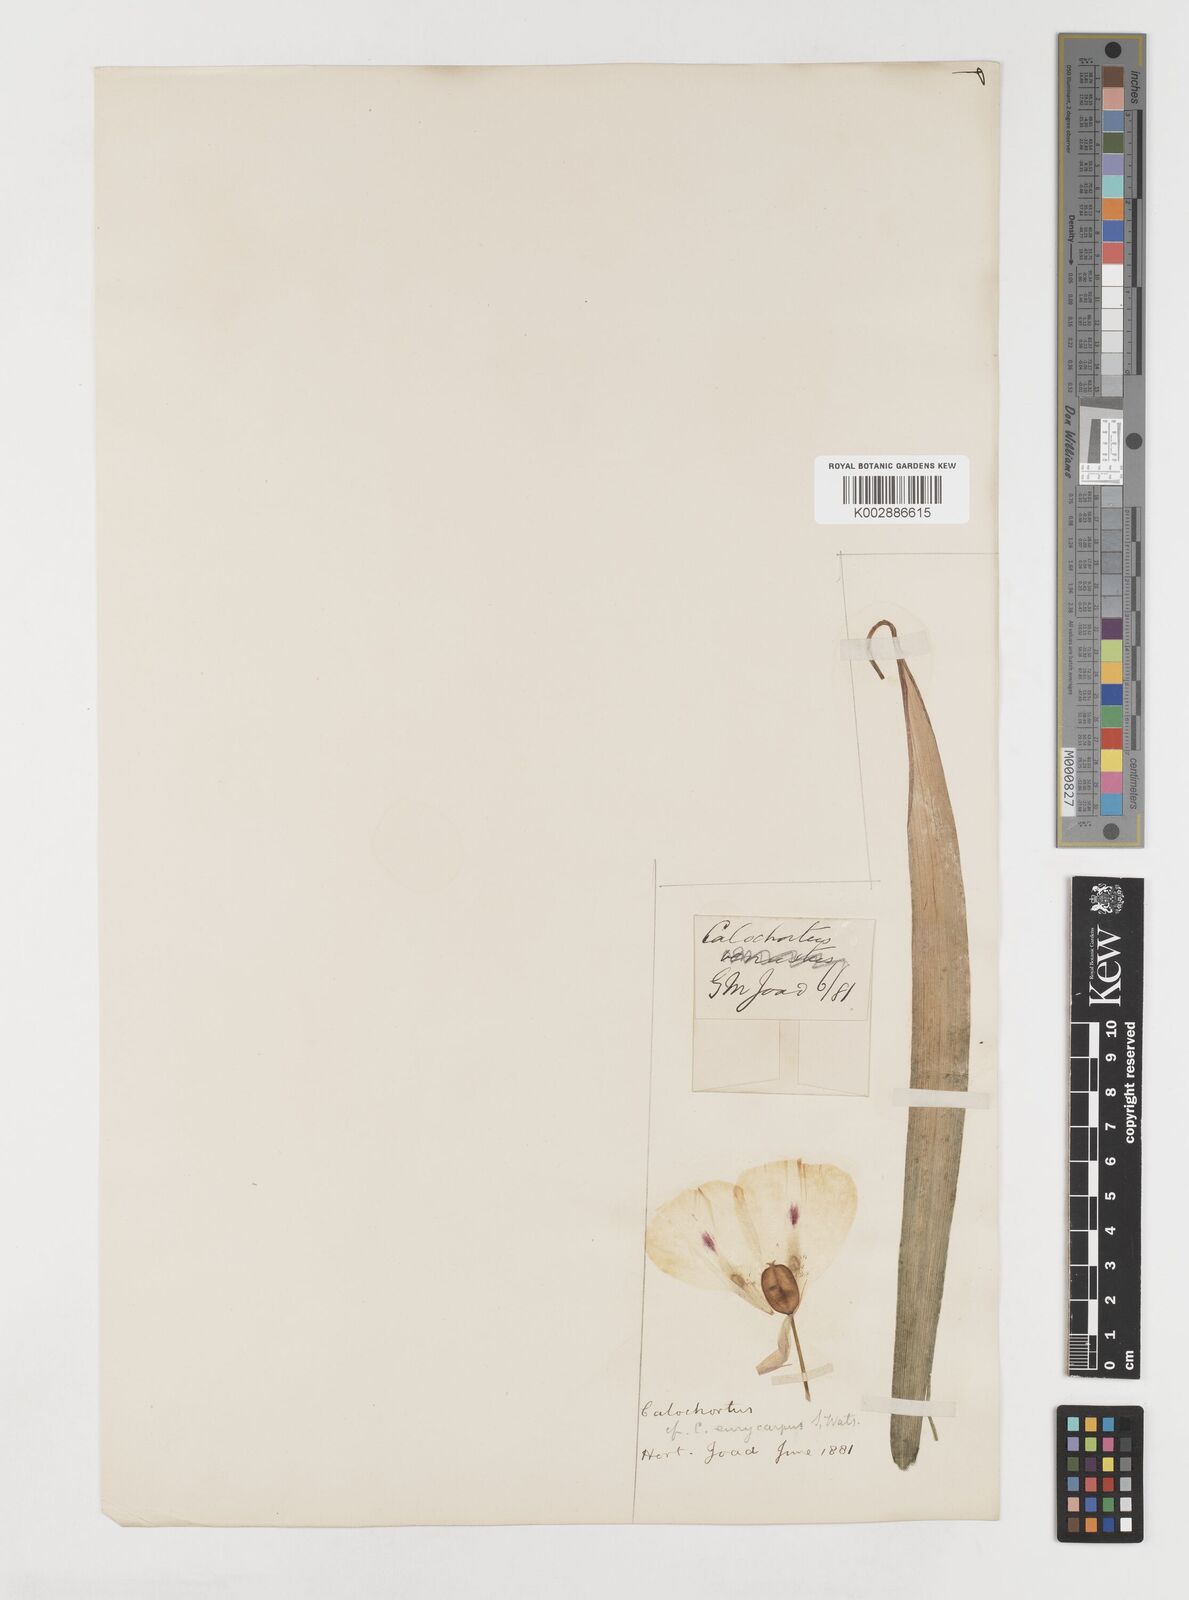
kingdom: Plantae
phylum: Tracheophyta
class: Liliopsida
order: Liliales
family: Liliaceae
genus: Calochortus
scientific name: Calochortus eurycarpus
